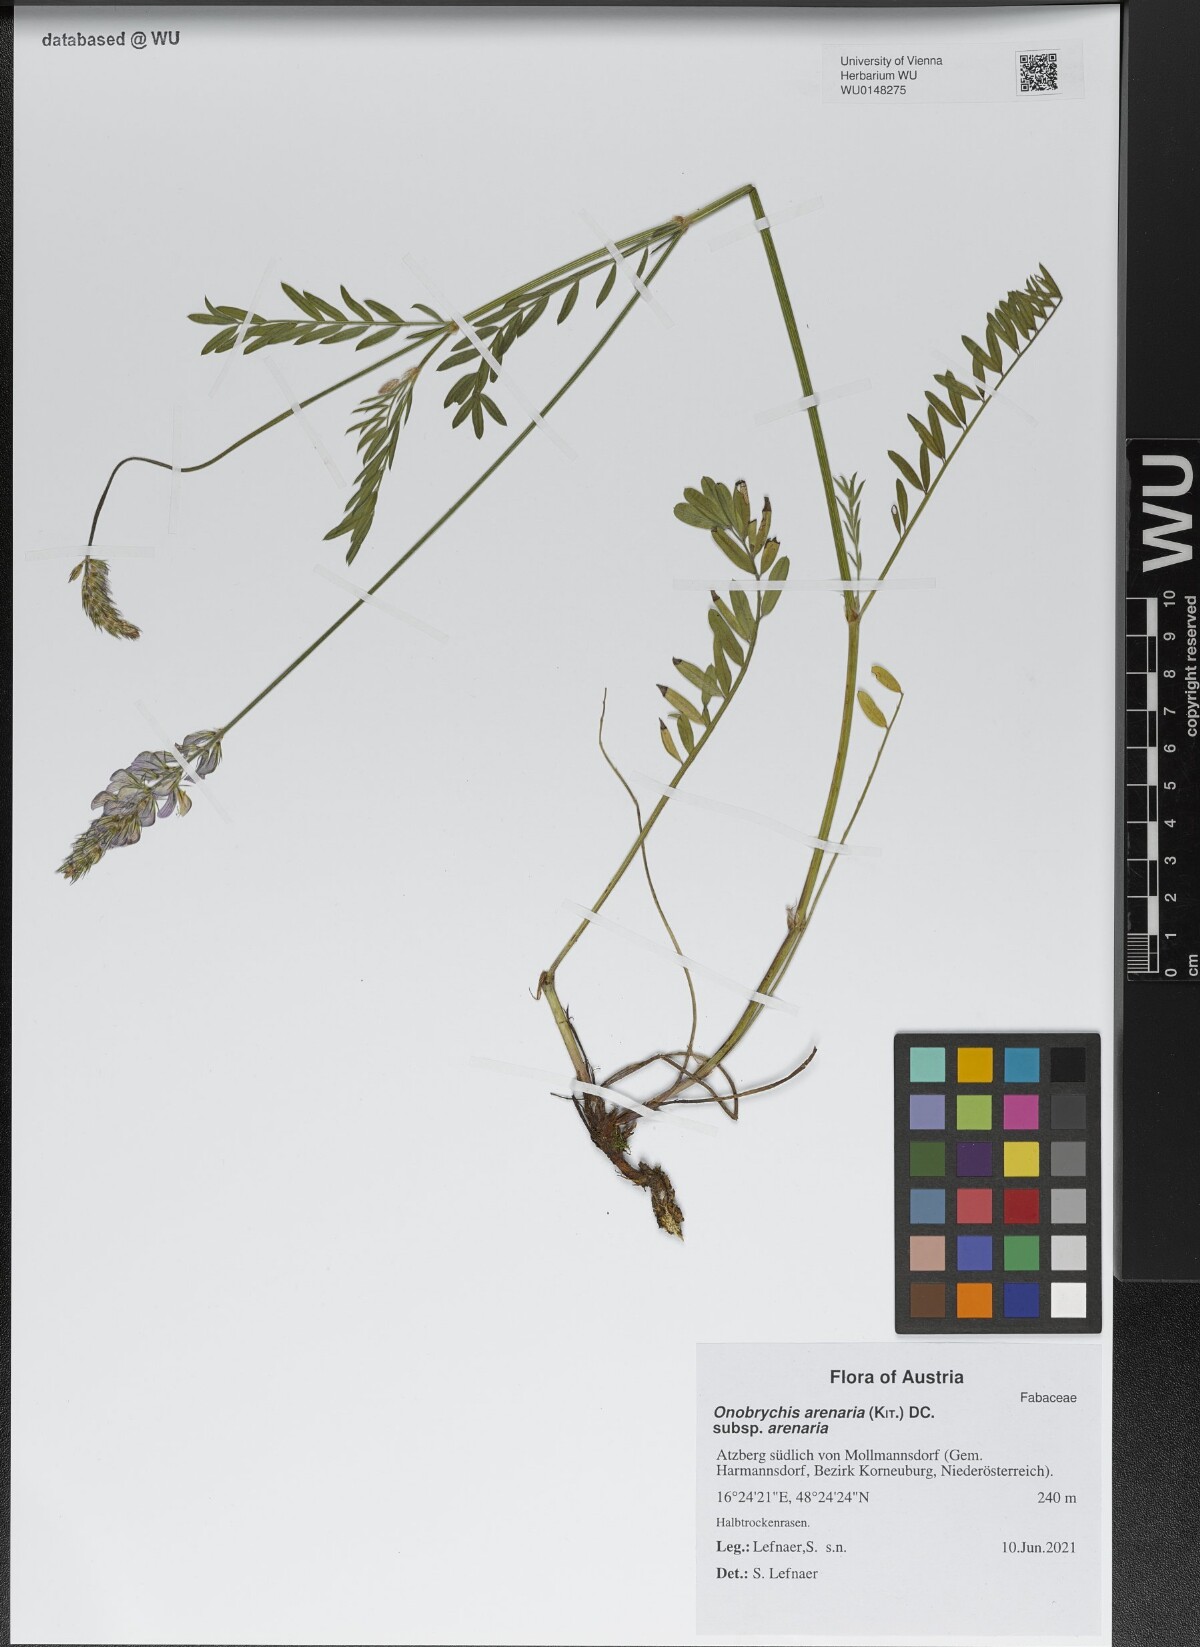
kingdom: Plantae
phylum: Tracheophyta
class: Magnoliopsida
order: Fabales
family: Fabaceae
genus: Onobrychis
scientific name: Onobrychis arenaria
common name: Sand esparcet
